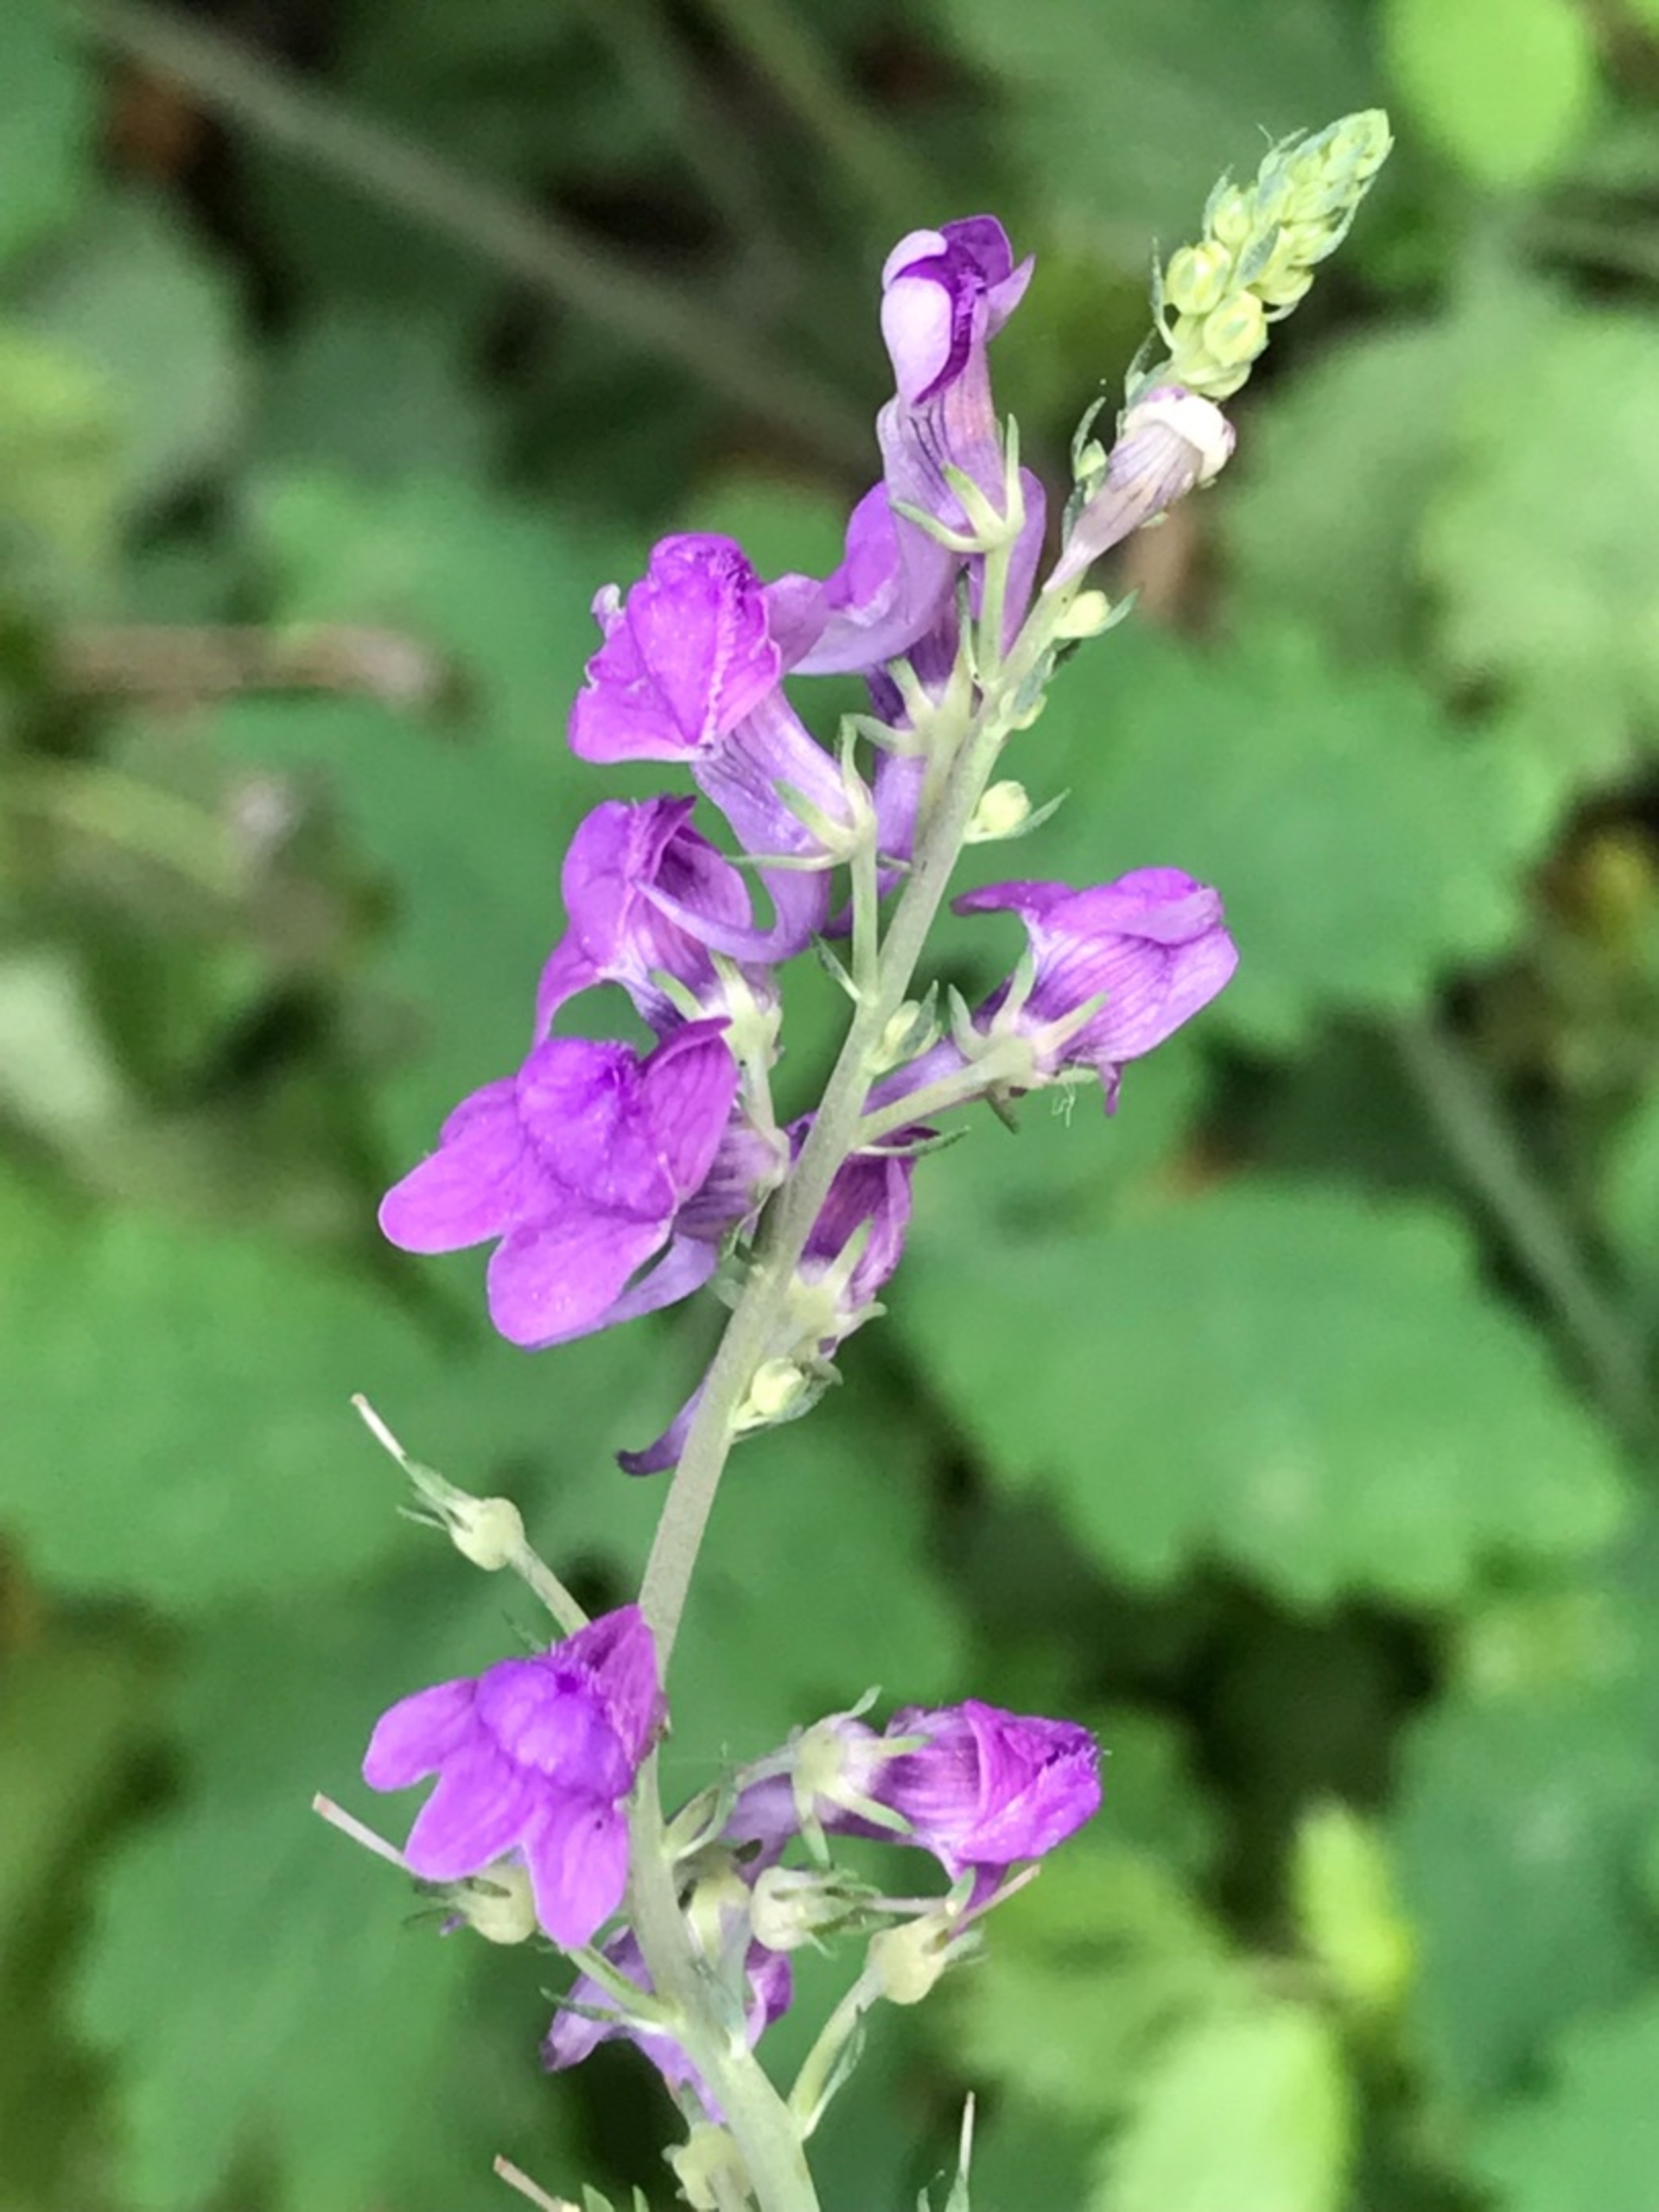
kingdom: Plantae
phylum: Tracheophyta
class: Magnoliopsida
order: Lamiales
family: Plantaginaceae
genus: Linaria
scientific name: Linaria purpurea
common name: Purpur-torskemund
